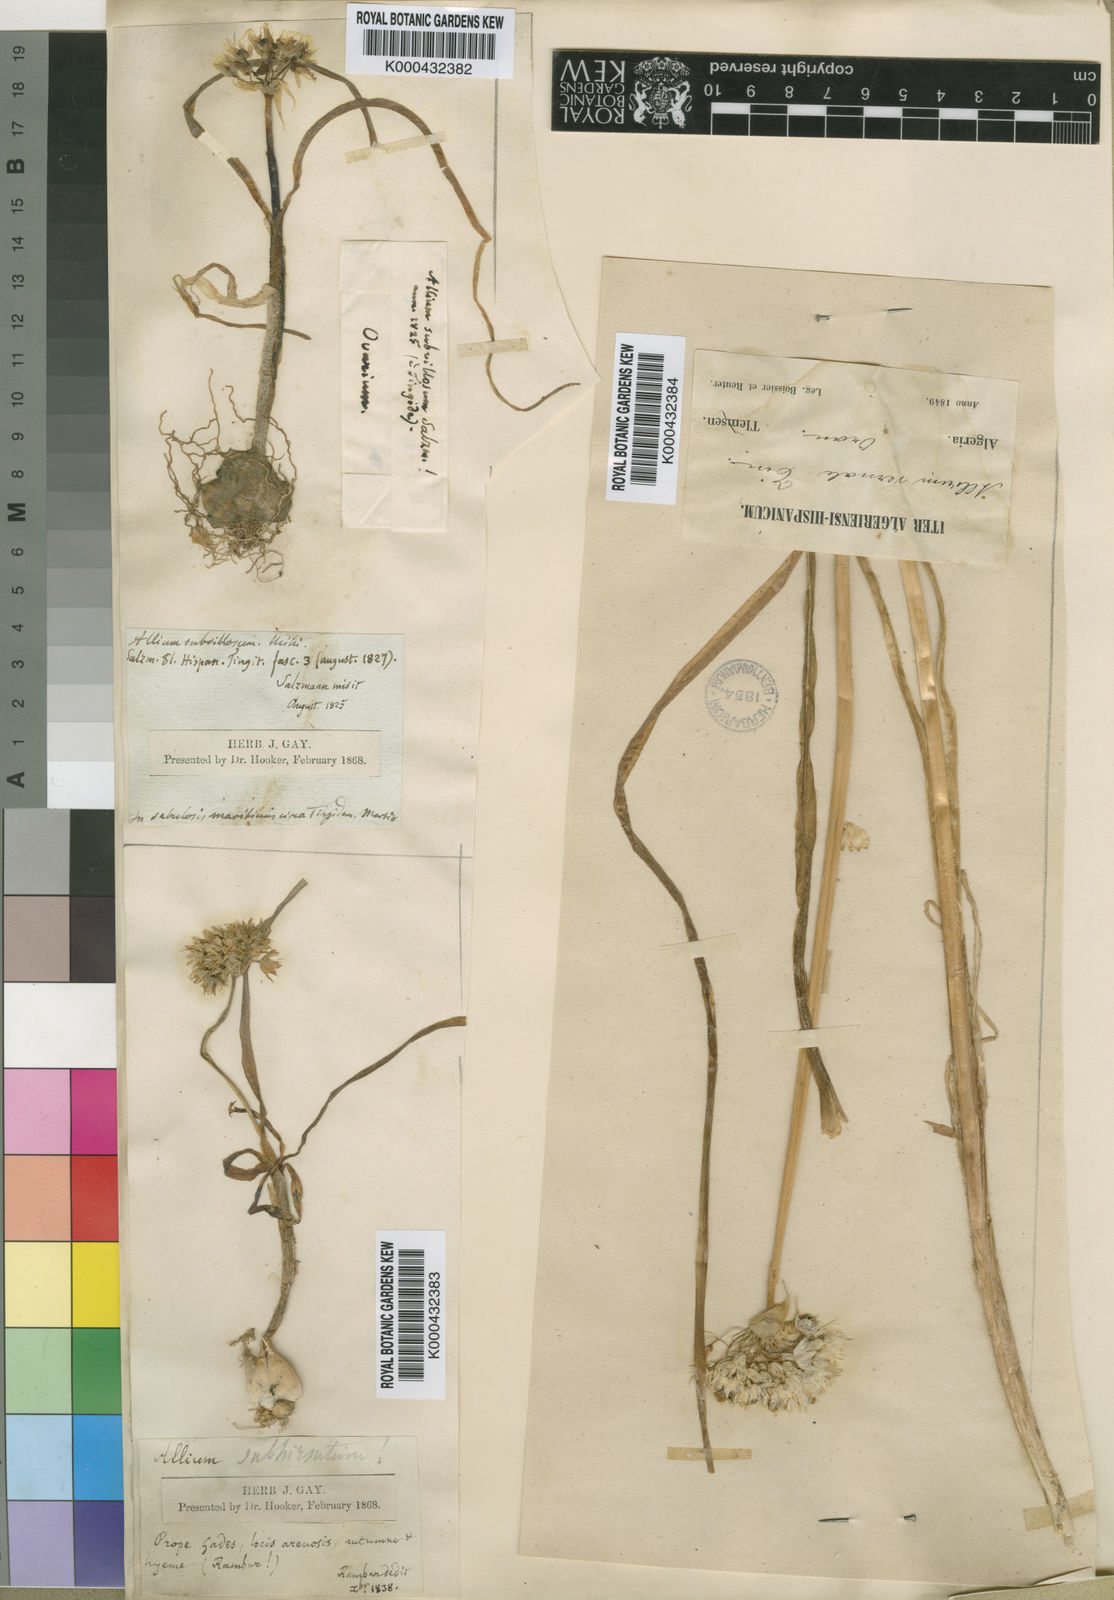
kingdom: Plantae
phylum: Tracheophyta
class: Liliopsida
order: Asparagales
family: Amaryllidaceae
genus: Allium
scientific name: Allium subvillosum
